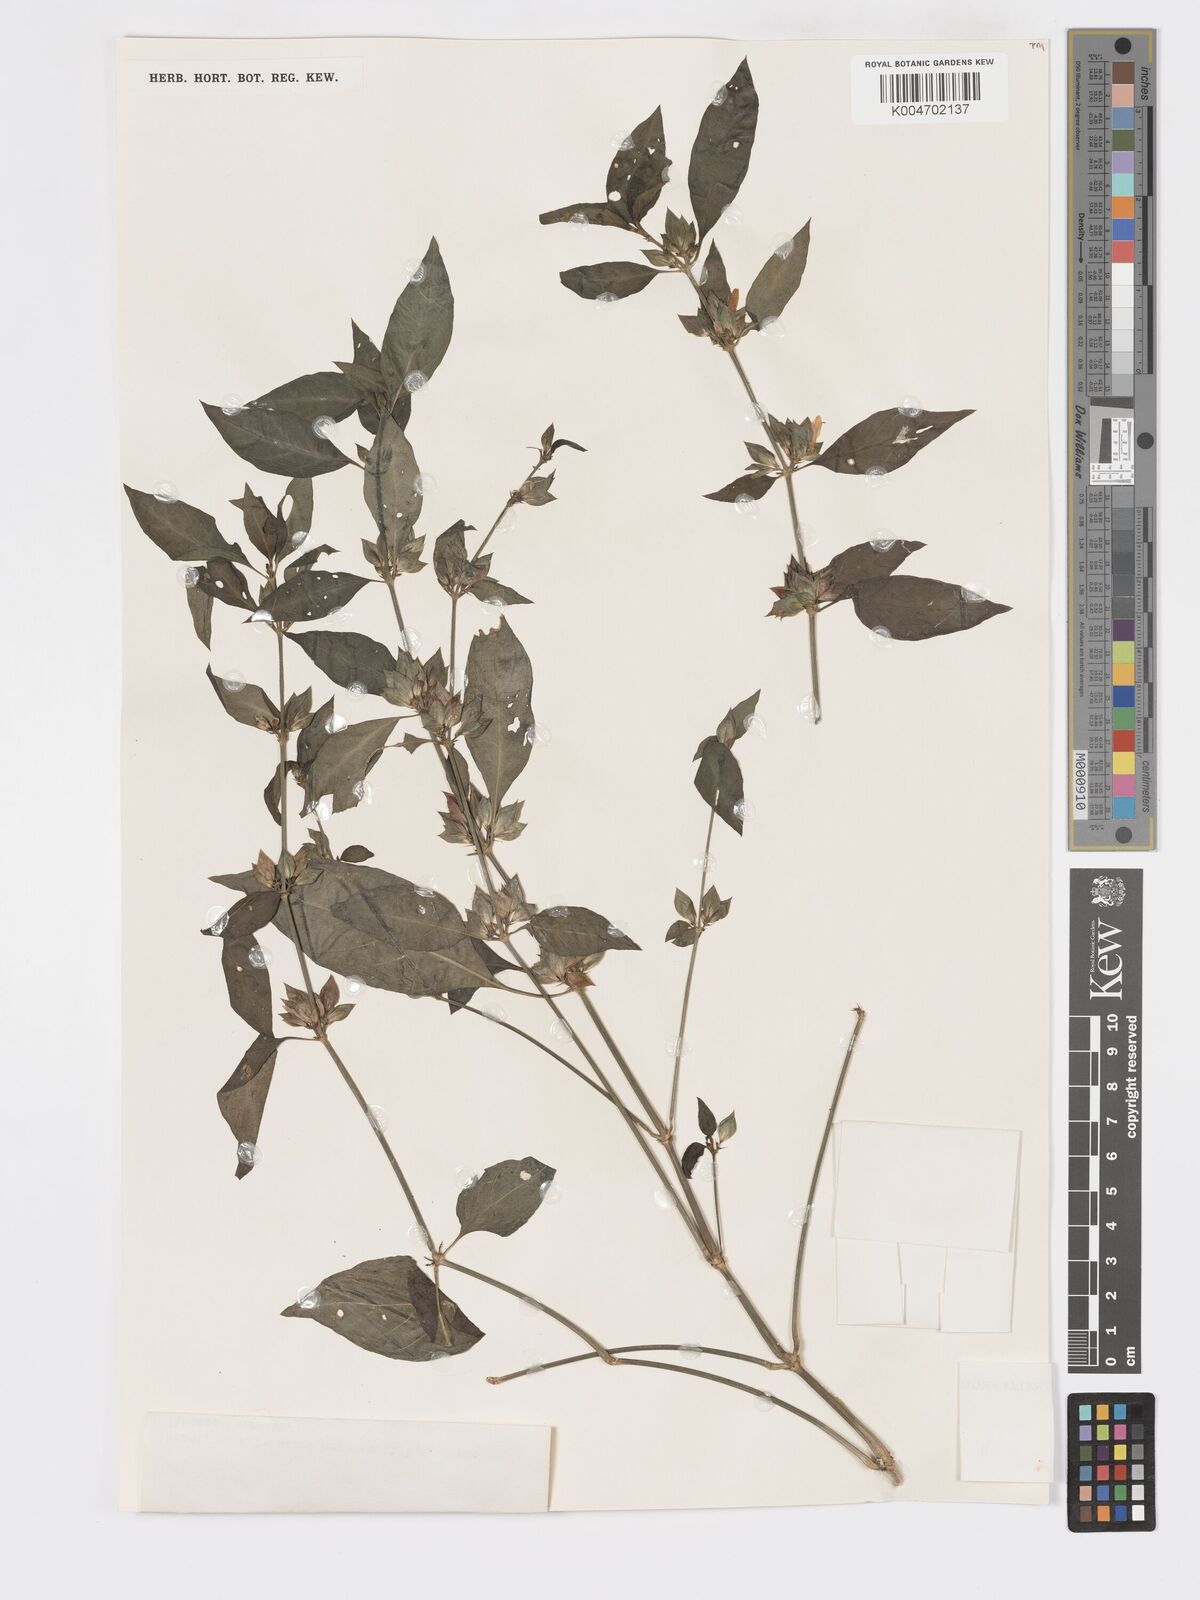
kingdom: Plantae
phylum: Tracheophyta
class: Magnoliopsida
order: Lamiales
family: Acanthaceae
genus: Dicliptera
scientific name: Dicliptera
